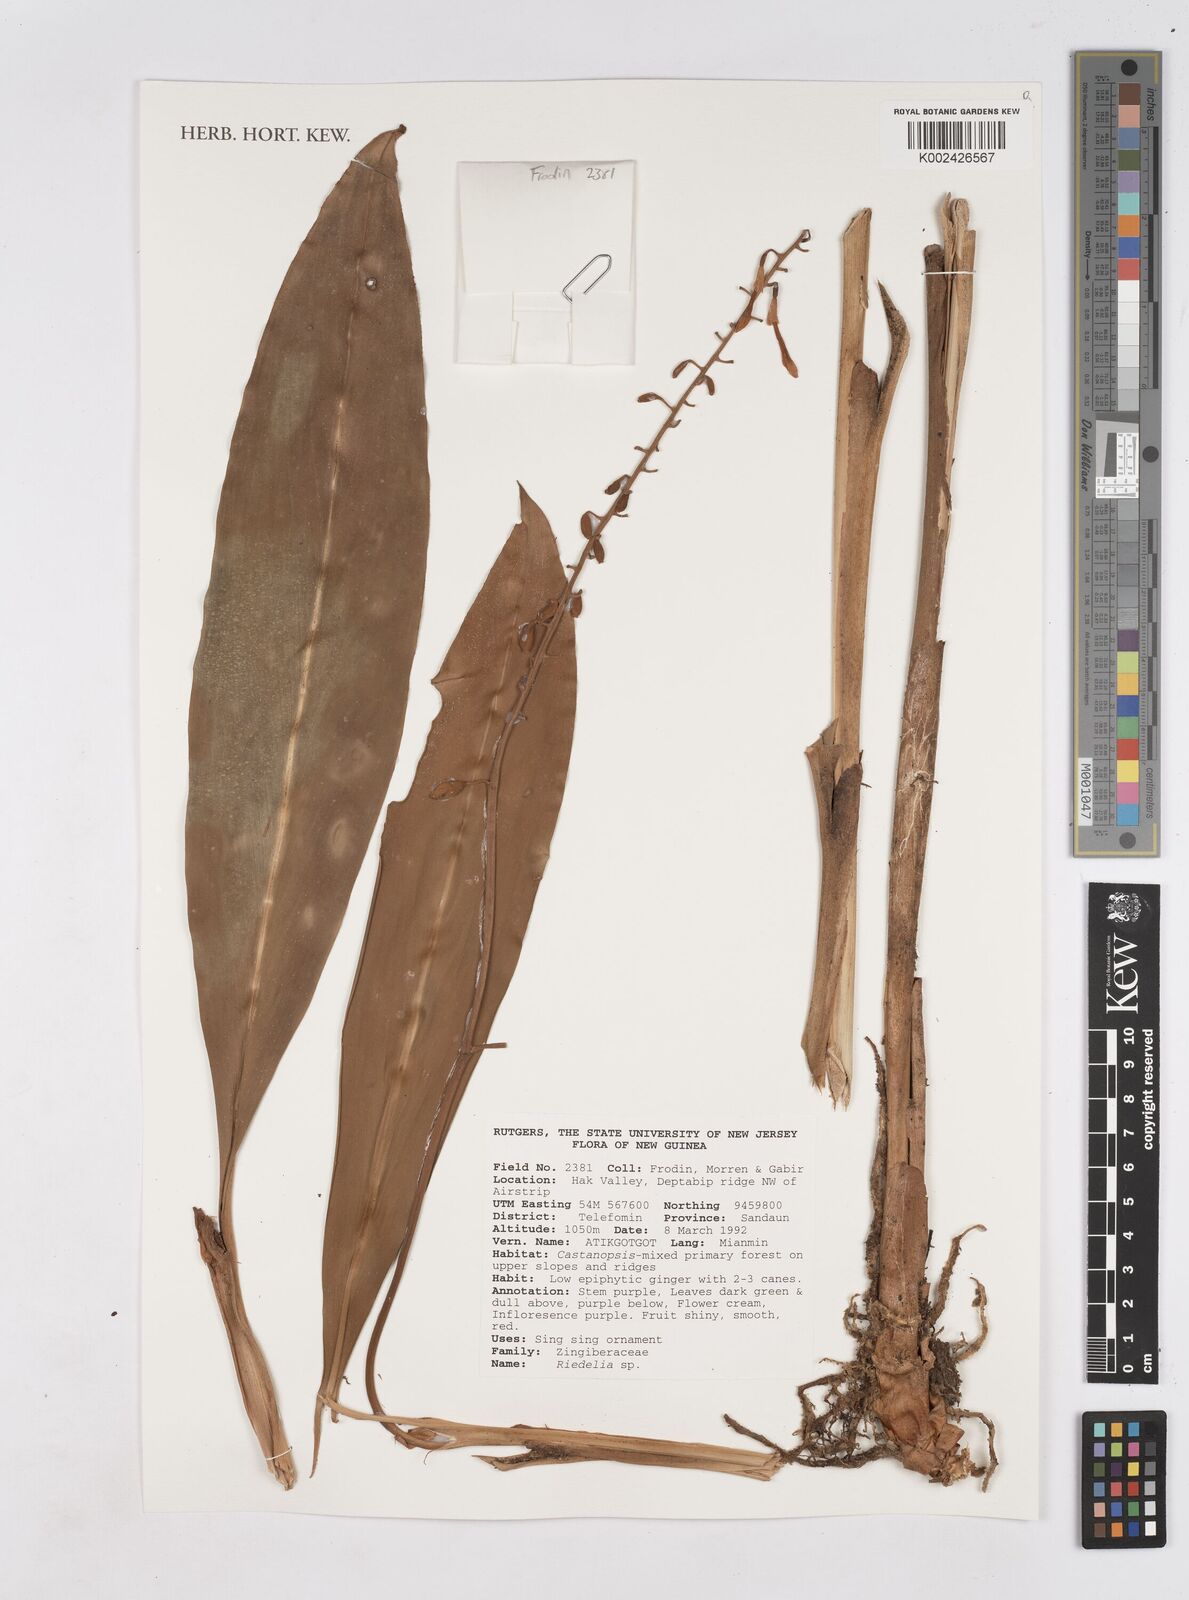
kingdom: Plantae
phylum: Tracheophyta
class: Liliopsida
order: Zingiberales
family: Zingiberaceae
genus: Riedelia
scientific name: Riedelia
